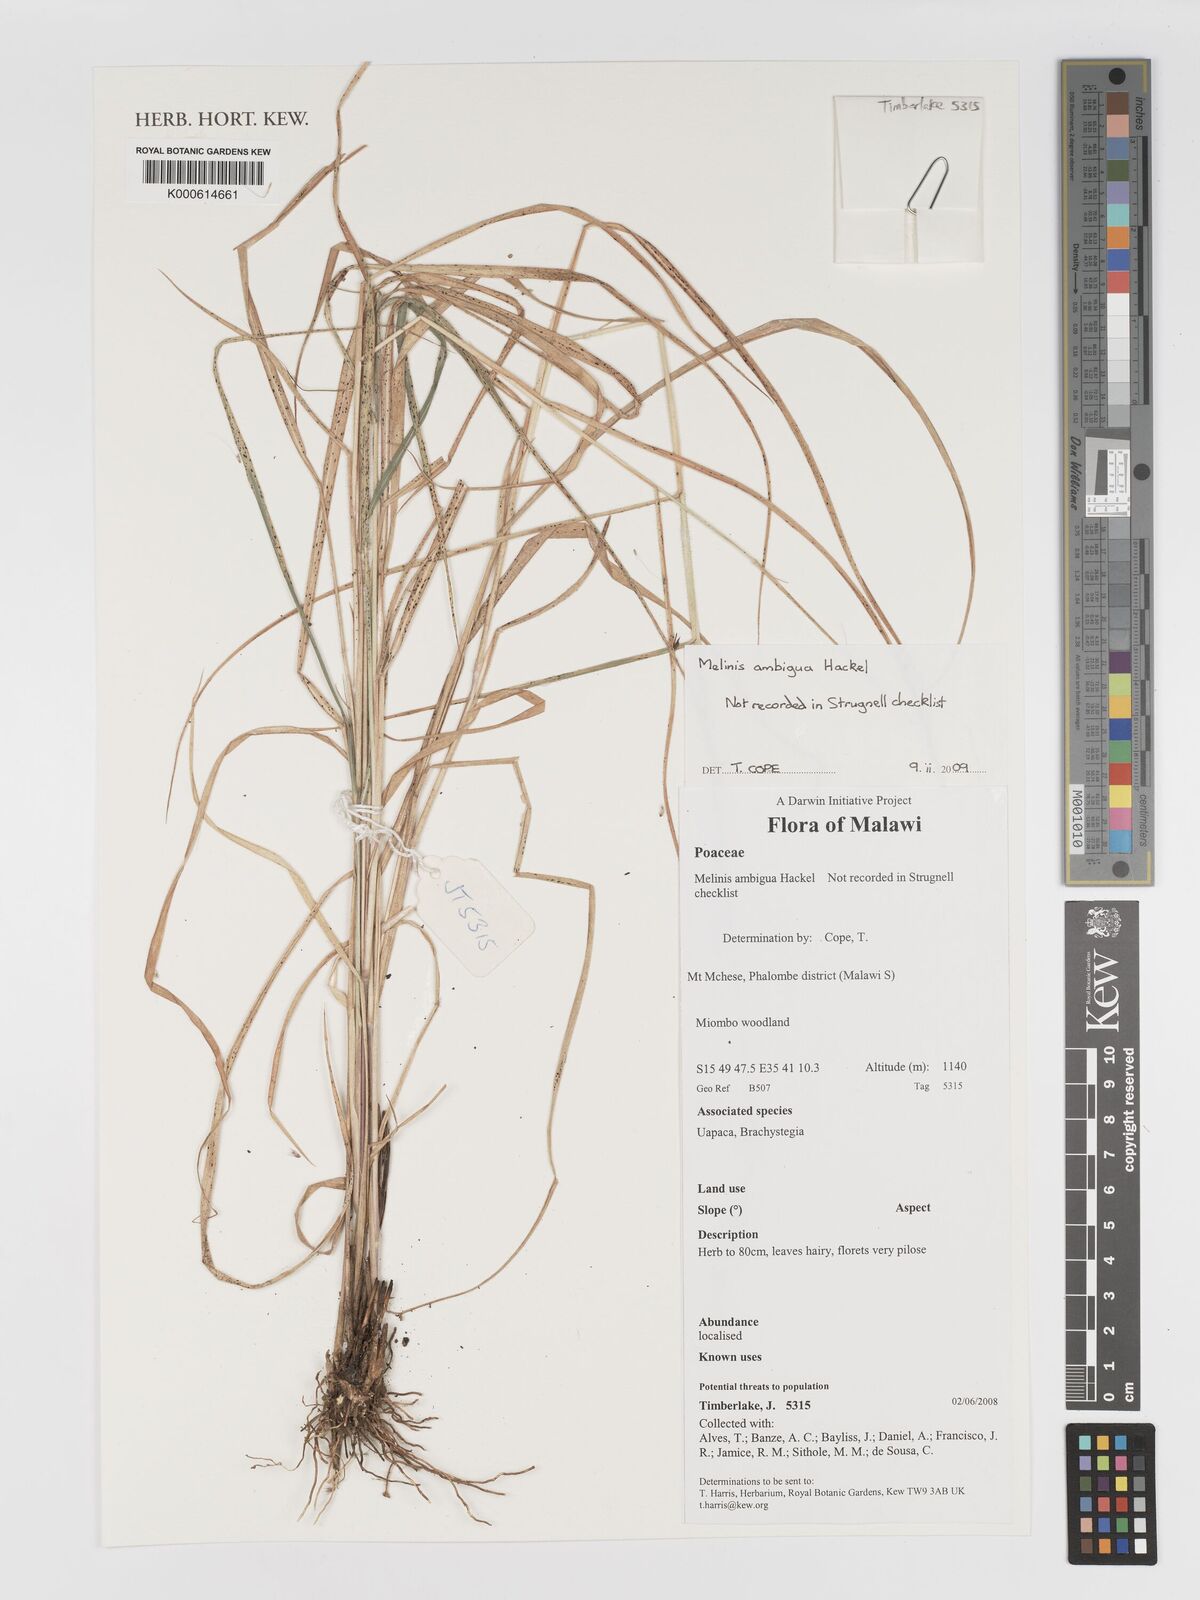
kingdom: Plantae
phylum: Tracheophyta
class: Liliopsida
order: Poales
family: Poaceae
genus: Melinis
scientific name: Melinis ambigua
